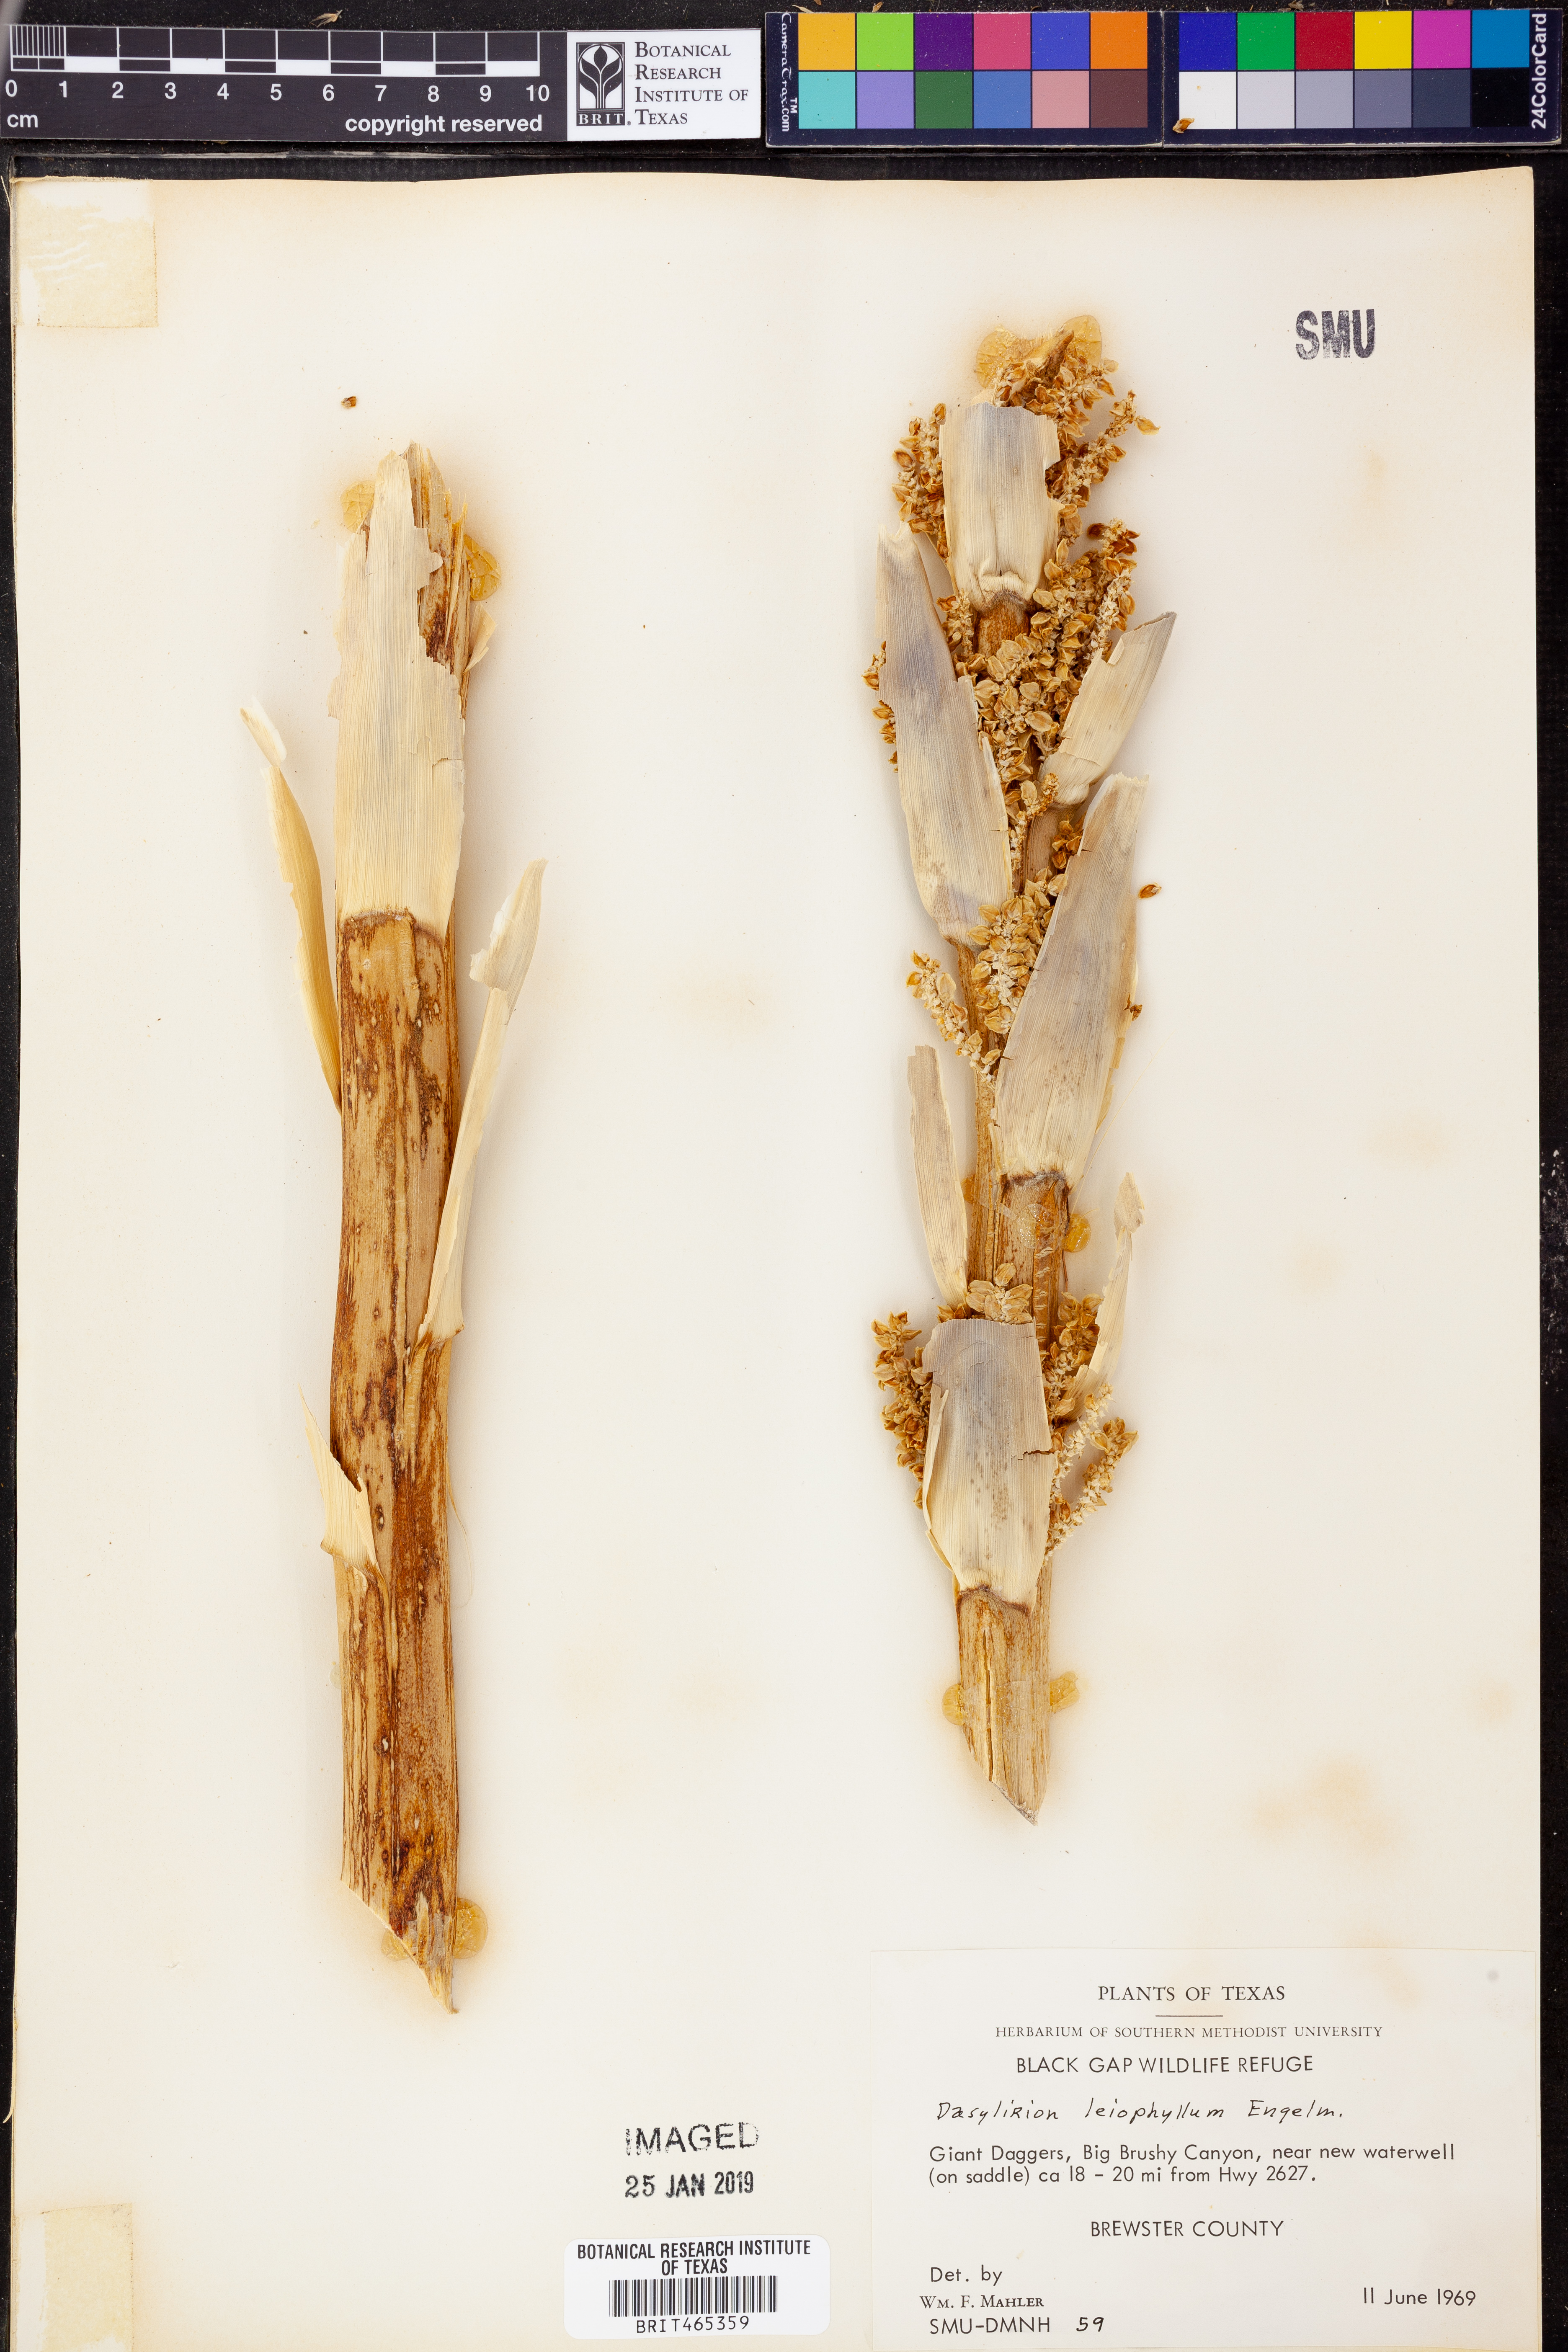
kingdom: Plantae
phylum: Tracheophyta
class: Liliopsida
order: Asparagales
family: Asparagaceae
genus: Dasylirion
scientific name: Dasylirion leiophyllum
